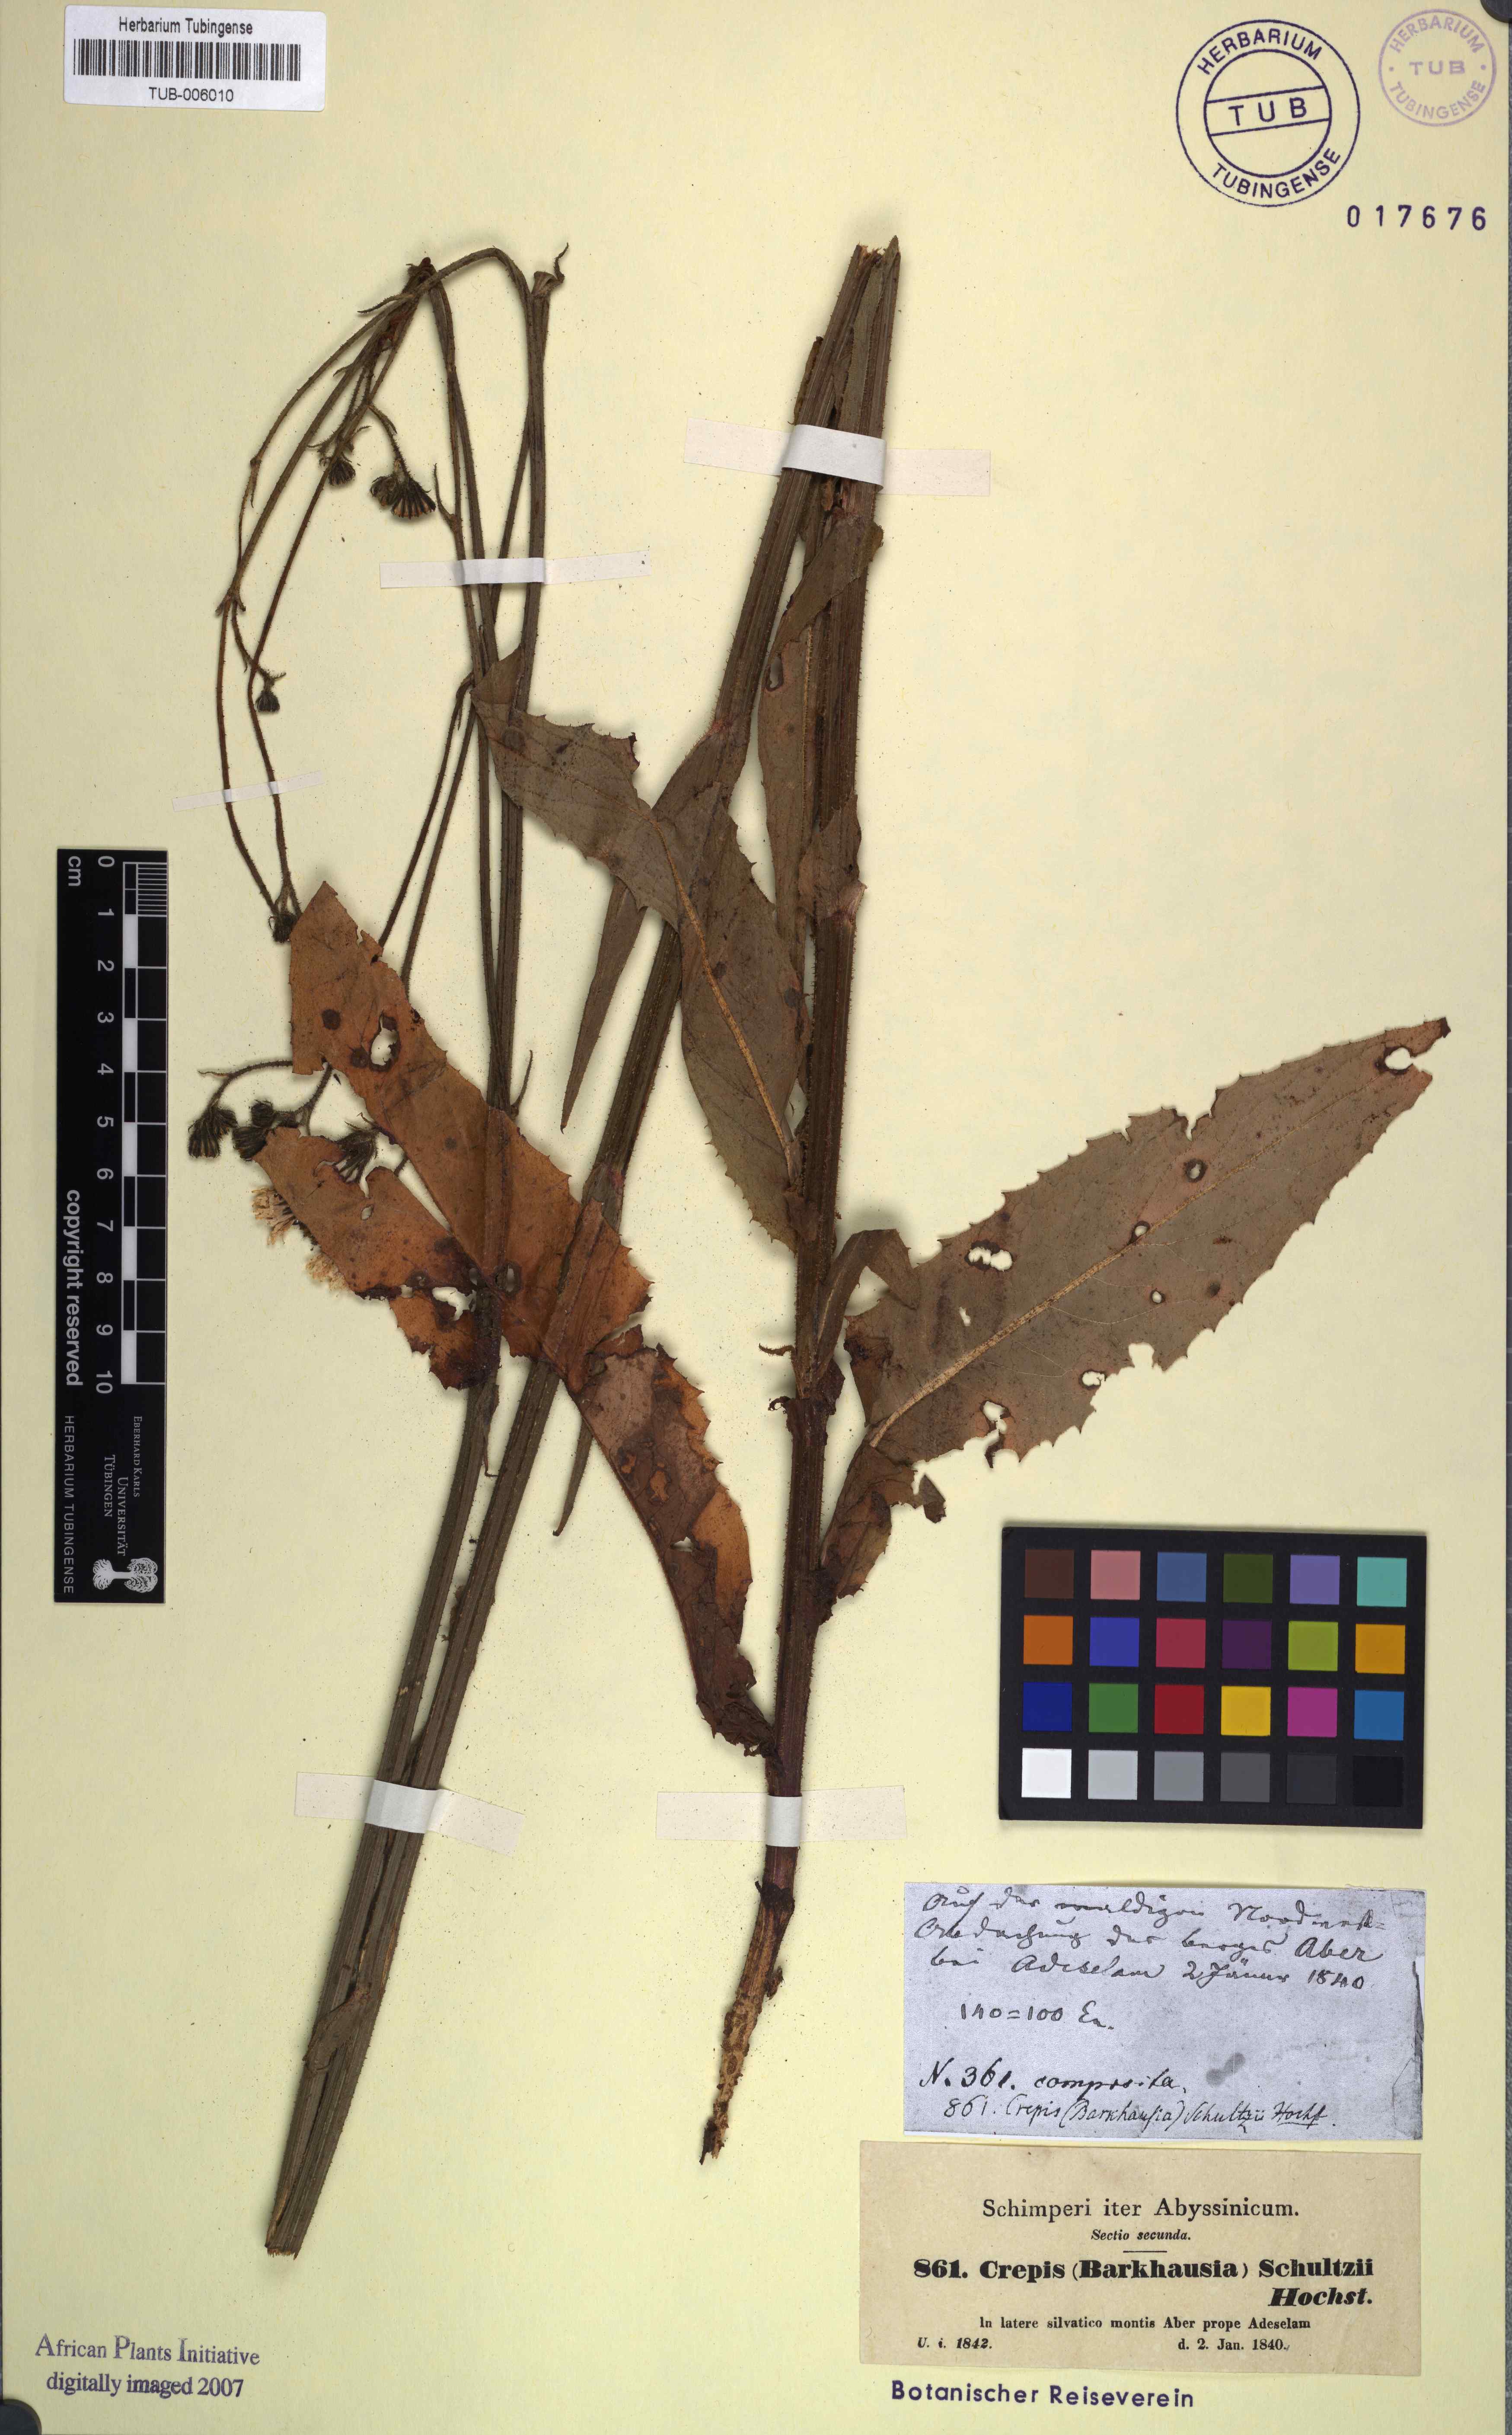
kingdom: Plantae
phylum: Tracheophyta
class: Magnoliopsida
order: Asterales
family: Asteraceae
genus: Crepis
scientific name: Crepis schultzii
